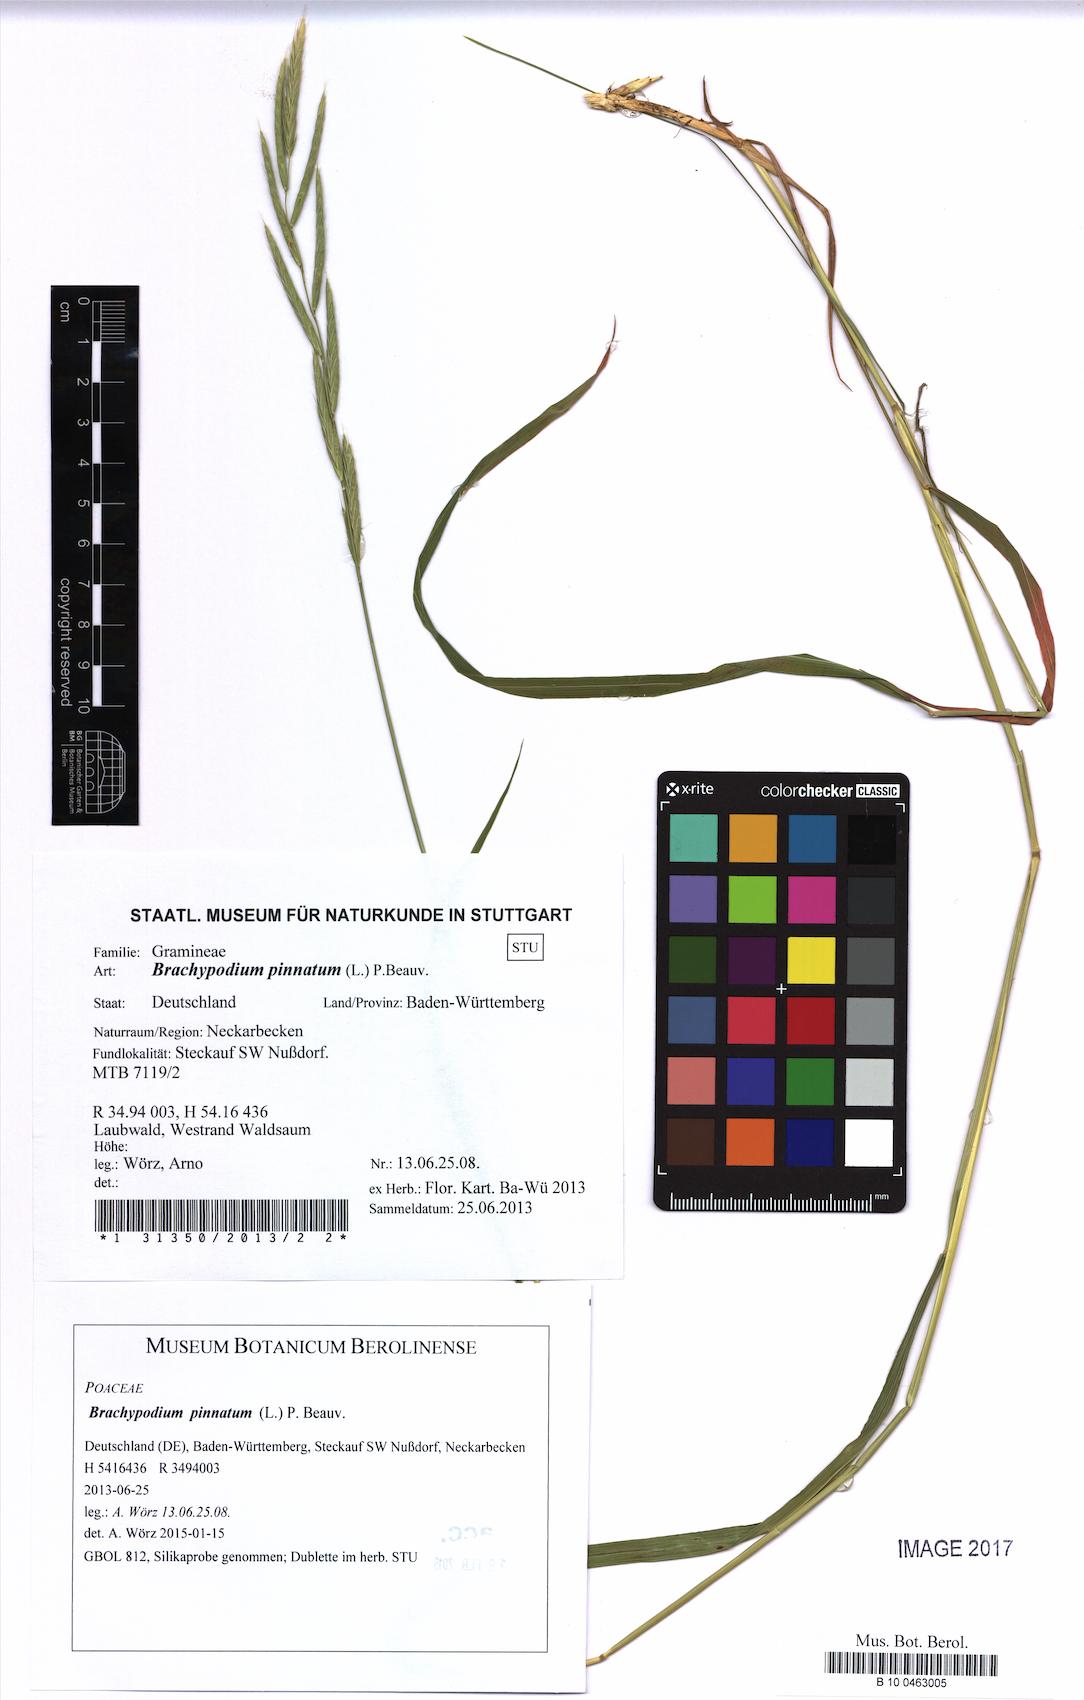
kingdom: Plantae
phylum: Tracheophyta
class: Liliopsida
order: Poales
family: Poaceae
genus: Brachypodium
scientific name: Brachypodium pinnatum
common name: Tor grass
